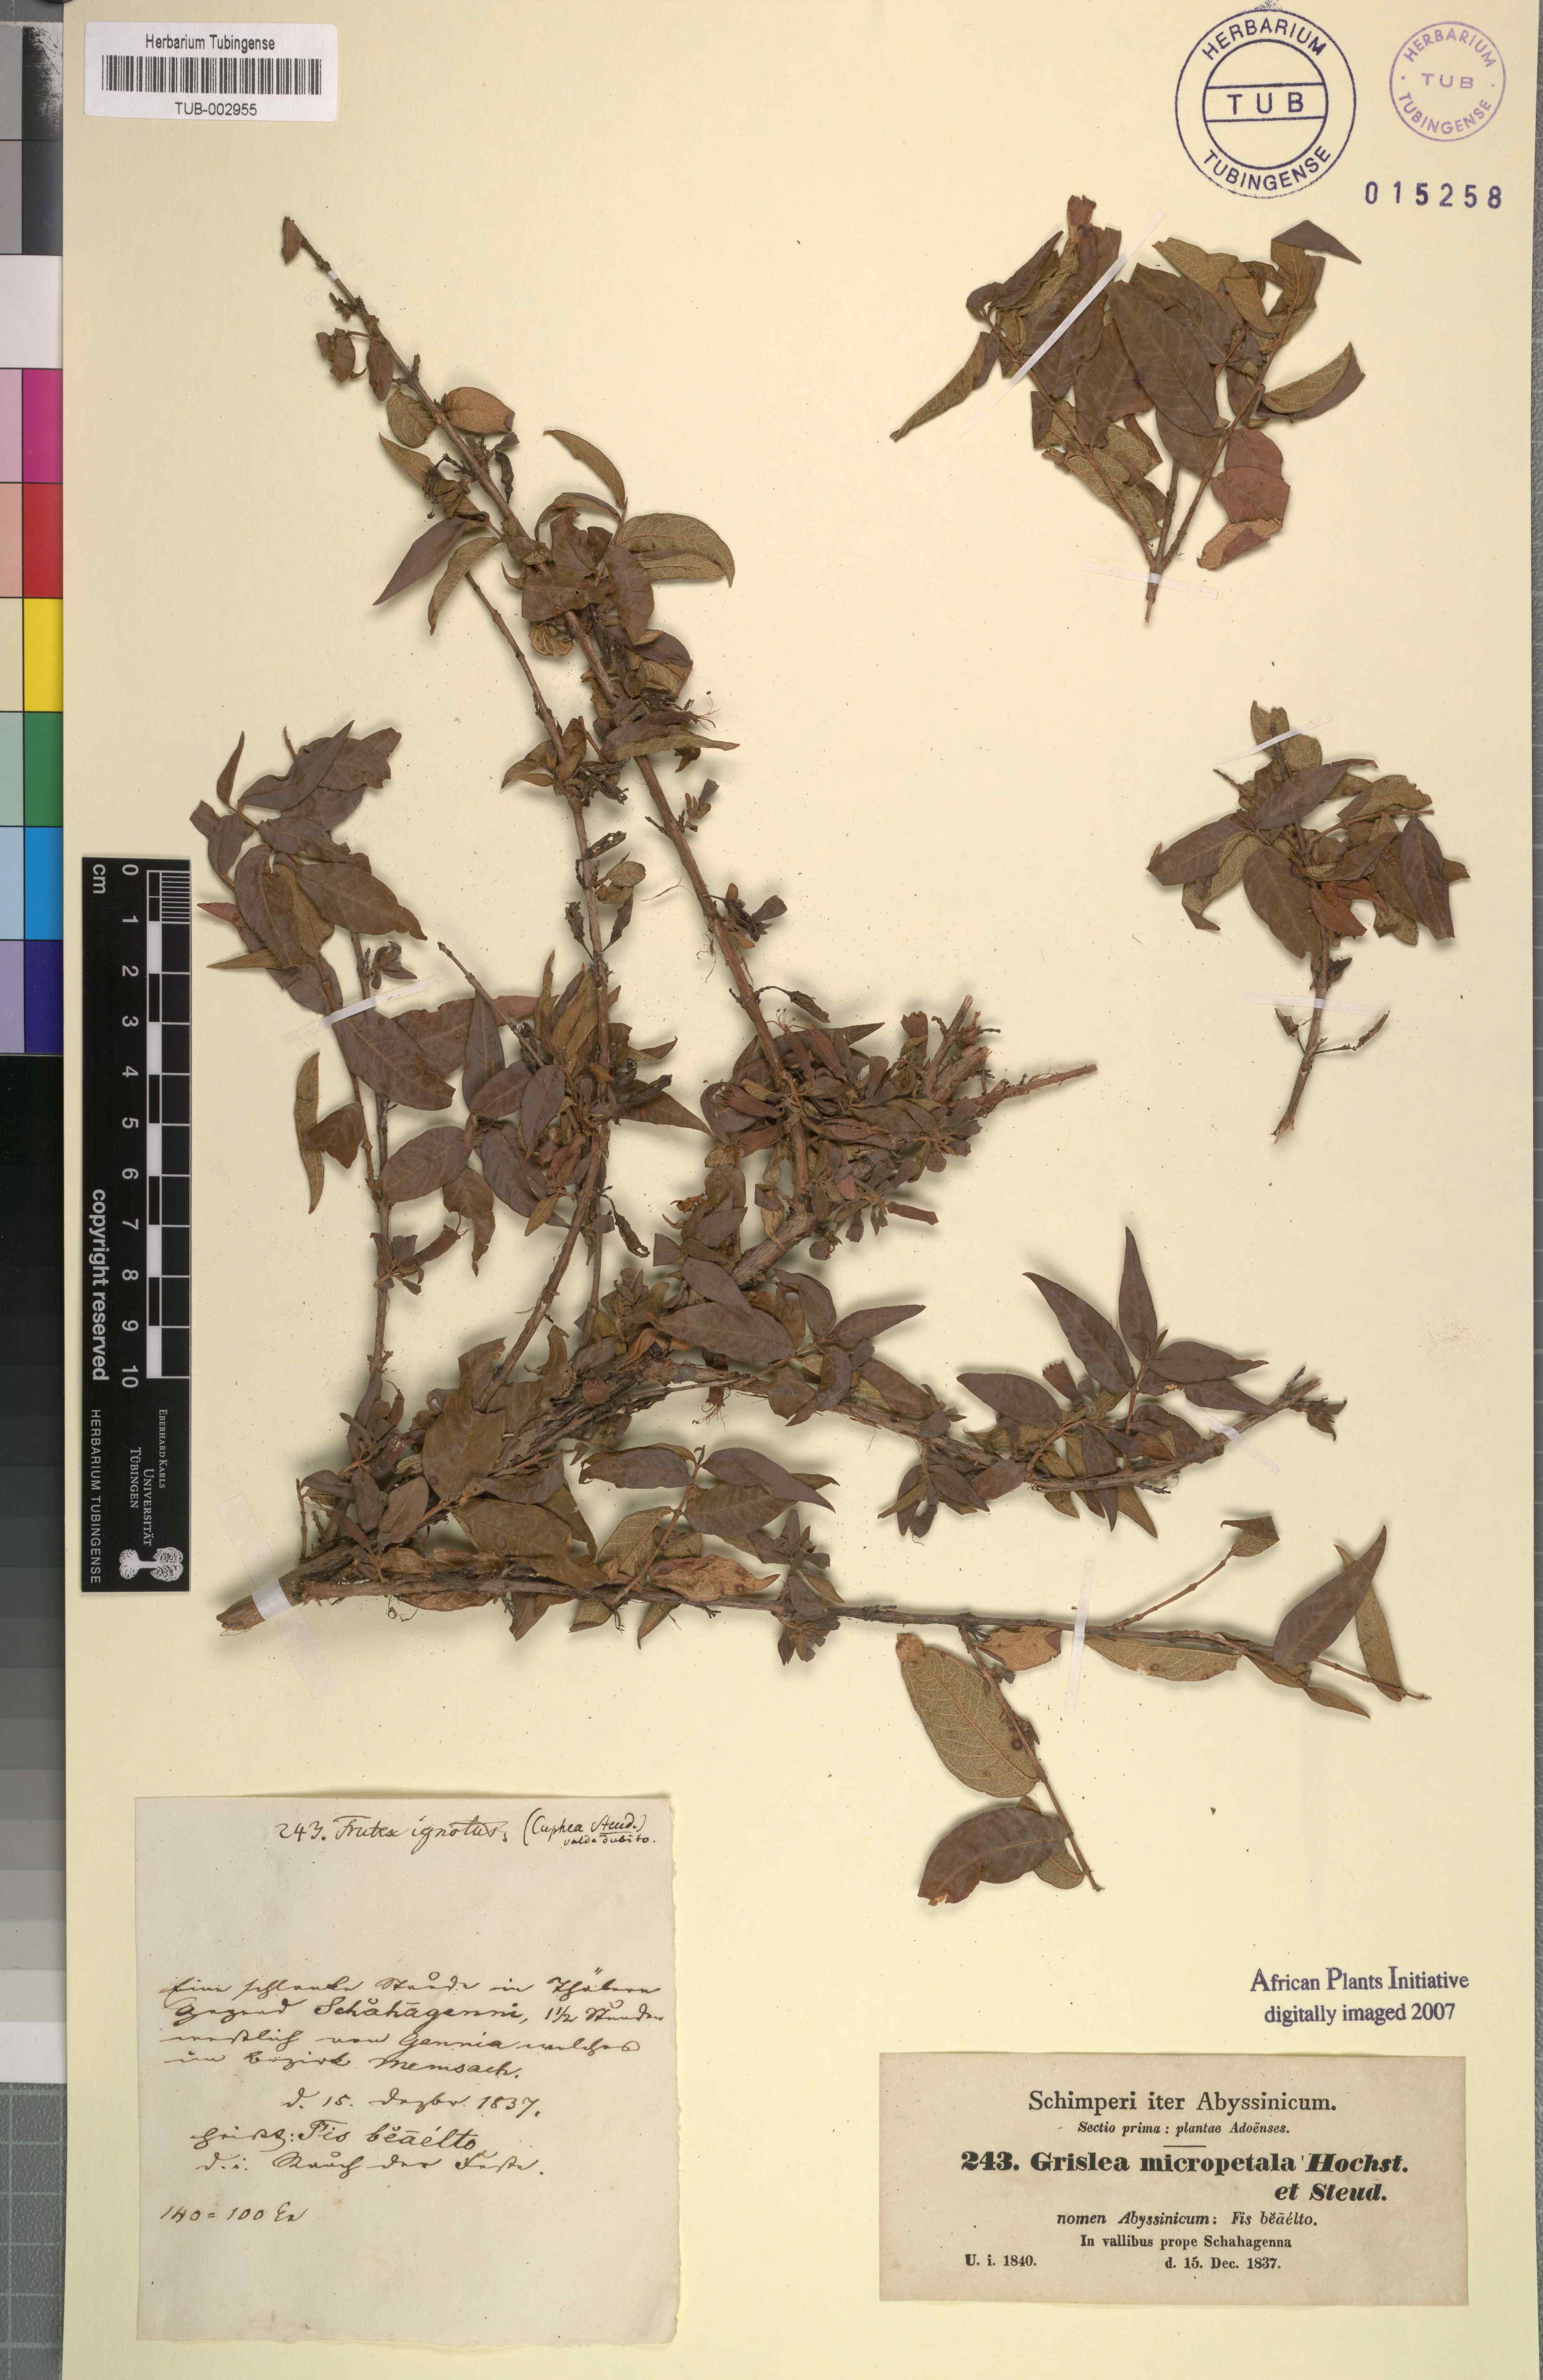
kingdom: Plantae
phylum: Tracheophyta
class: Magnoliopsida
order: Myrtales
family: Lythraceae
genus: Woodfordia
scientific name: Woodfordia uniflora
